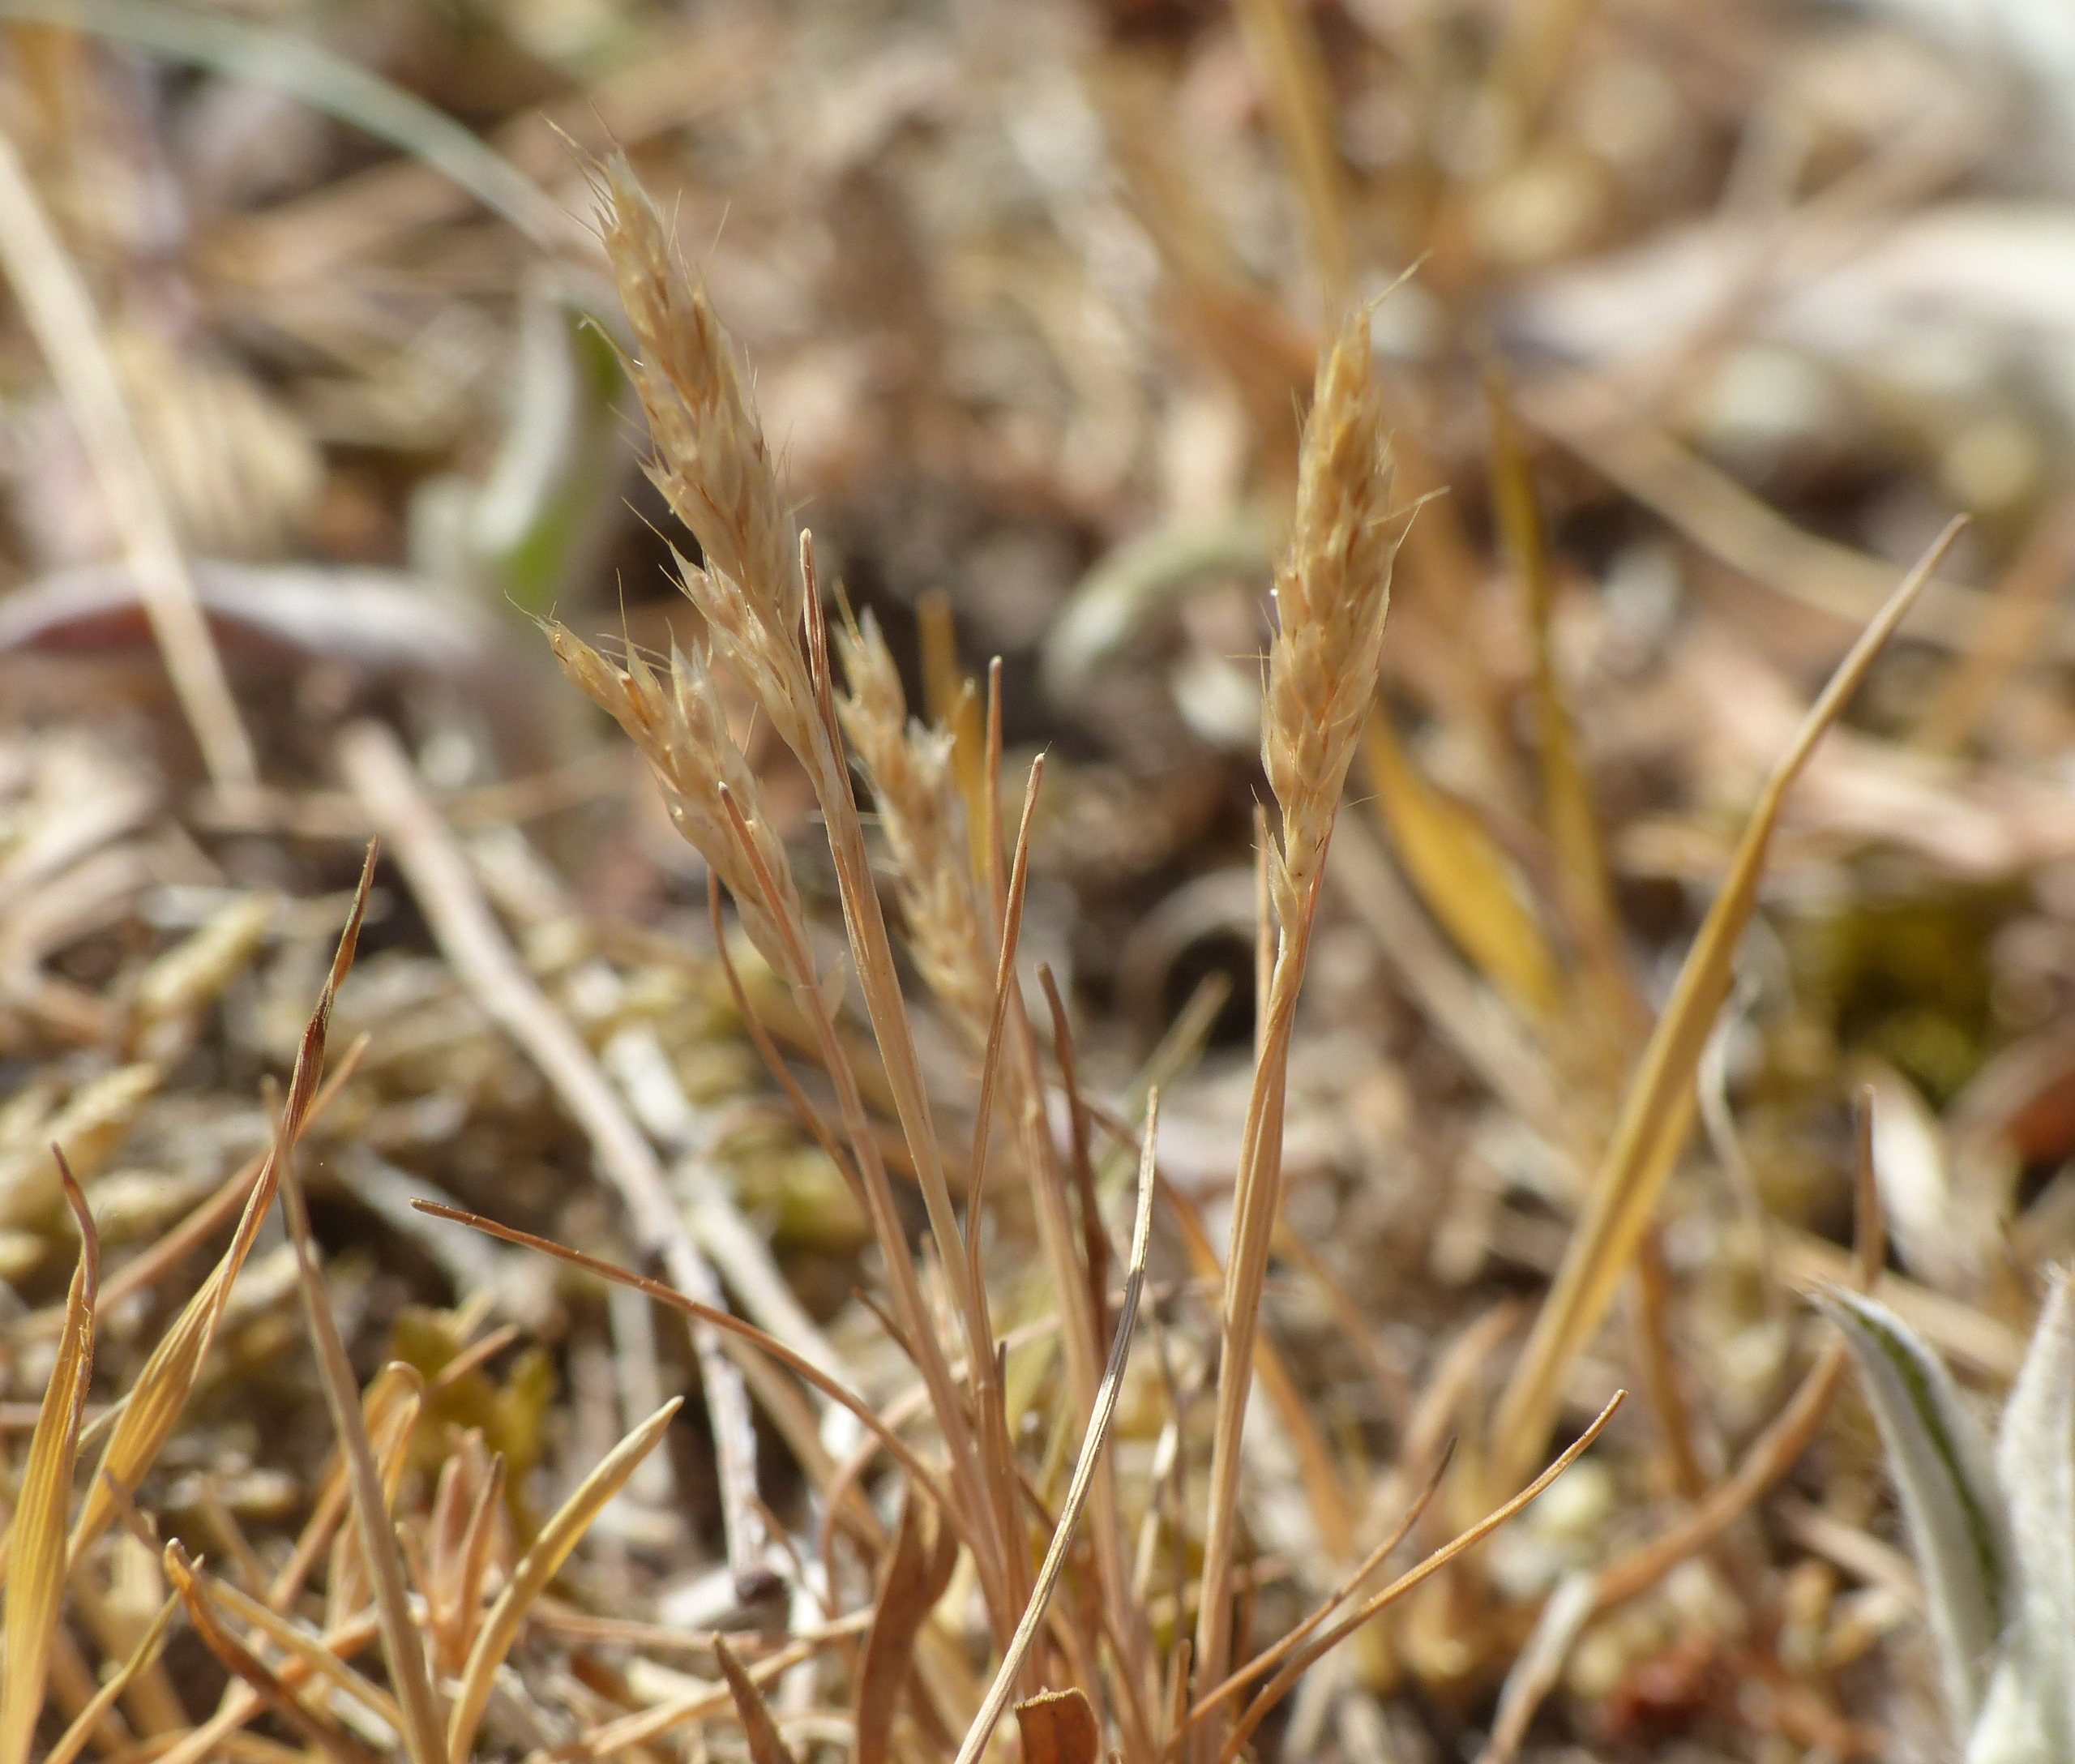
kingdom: Plantae
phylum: Tracheophyta
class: Liliopsida
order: Poales
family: Poaceae
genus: Aira
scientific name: Aira praecox
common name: Tidlig dværgbunke
